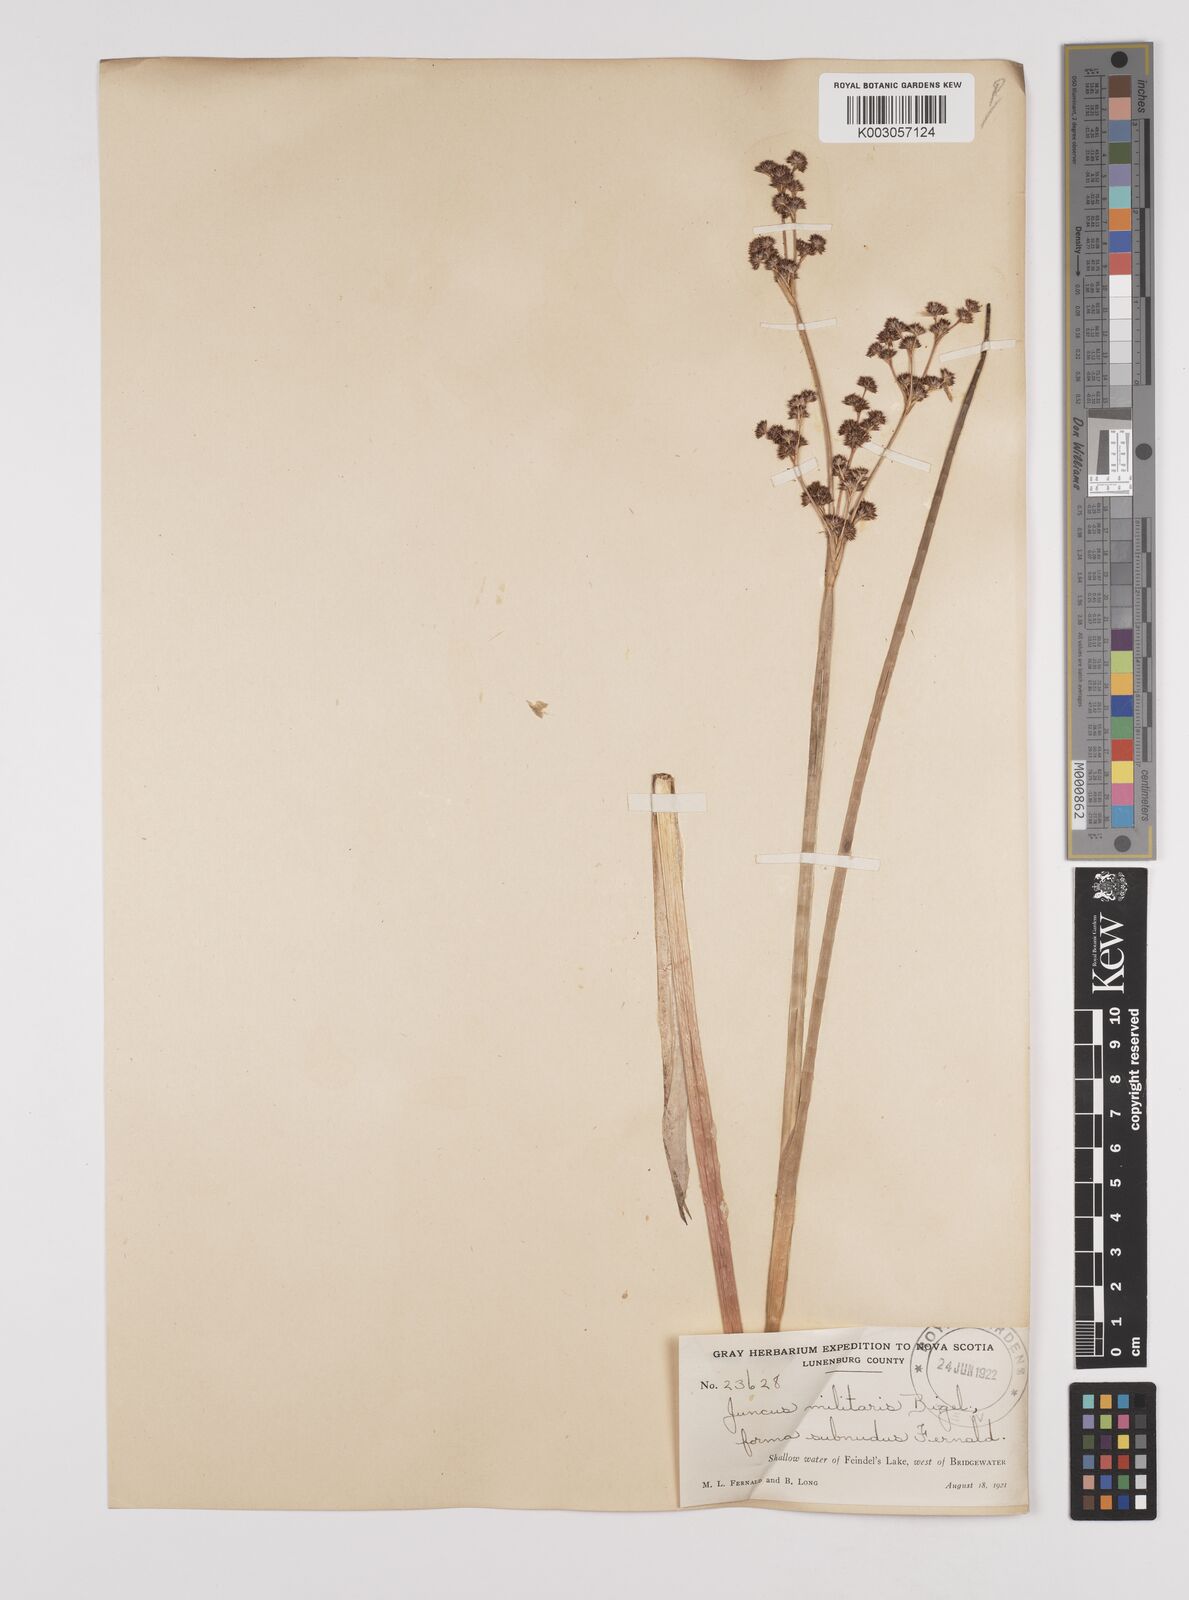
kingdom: Plantae
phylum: Tracheophyta
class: Liliopsida
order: Poales
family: Juncaceae
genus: Juncus
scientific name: Juncus militaris
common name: Bayonet rush
